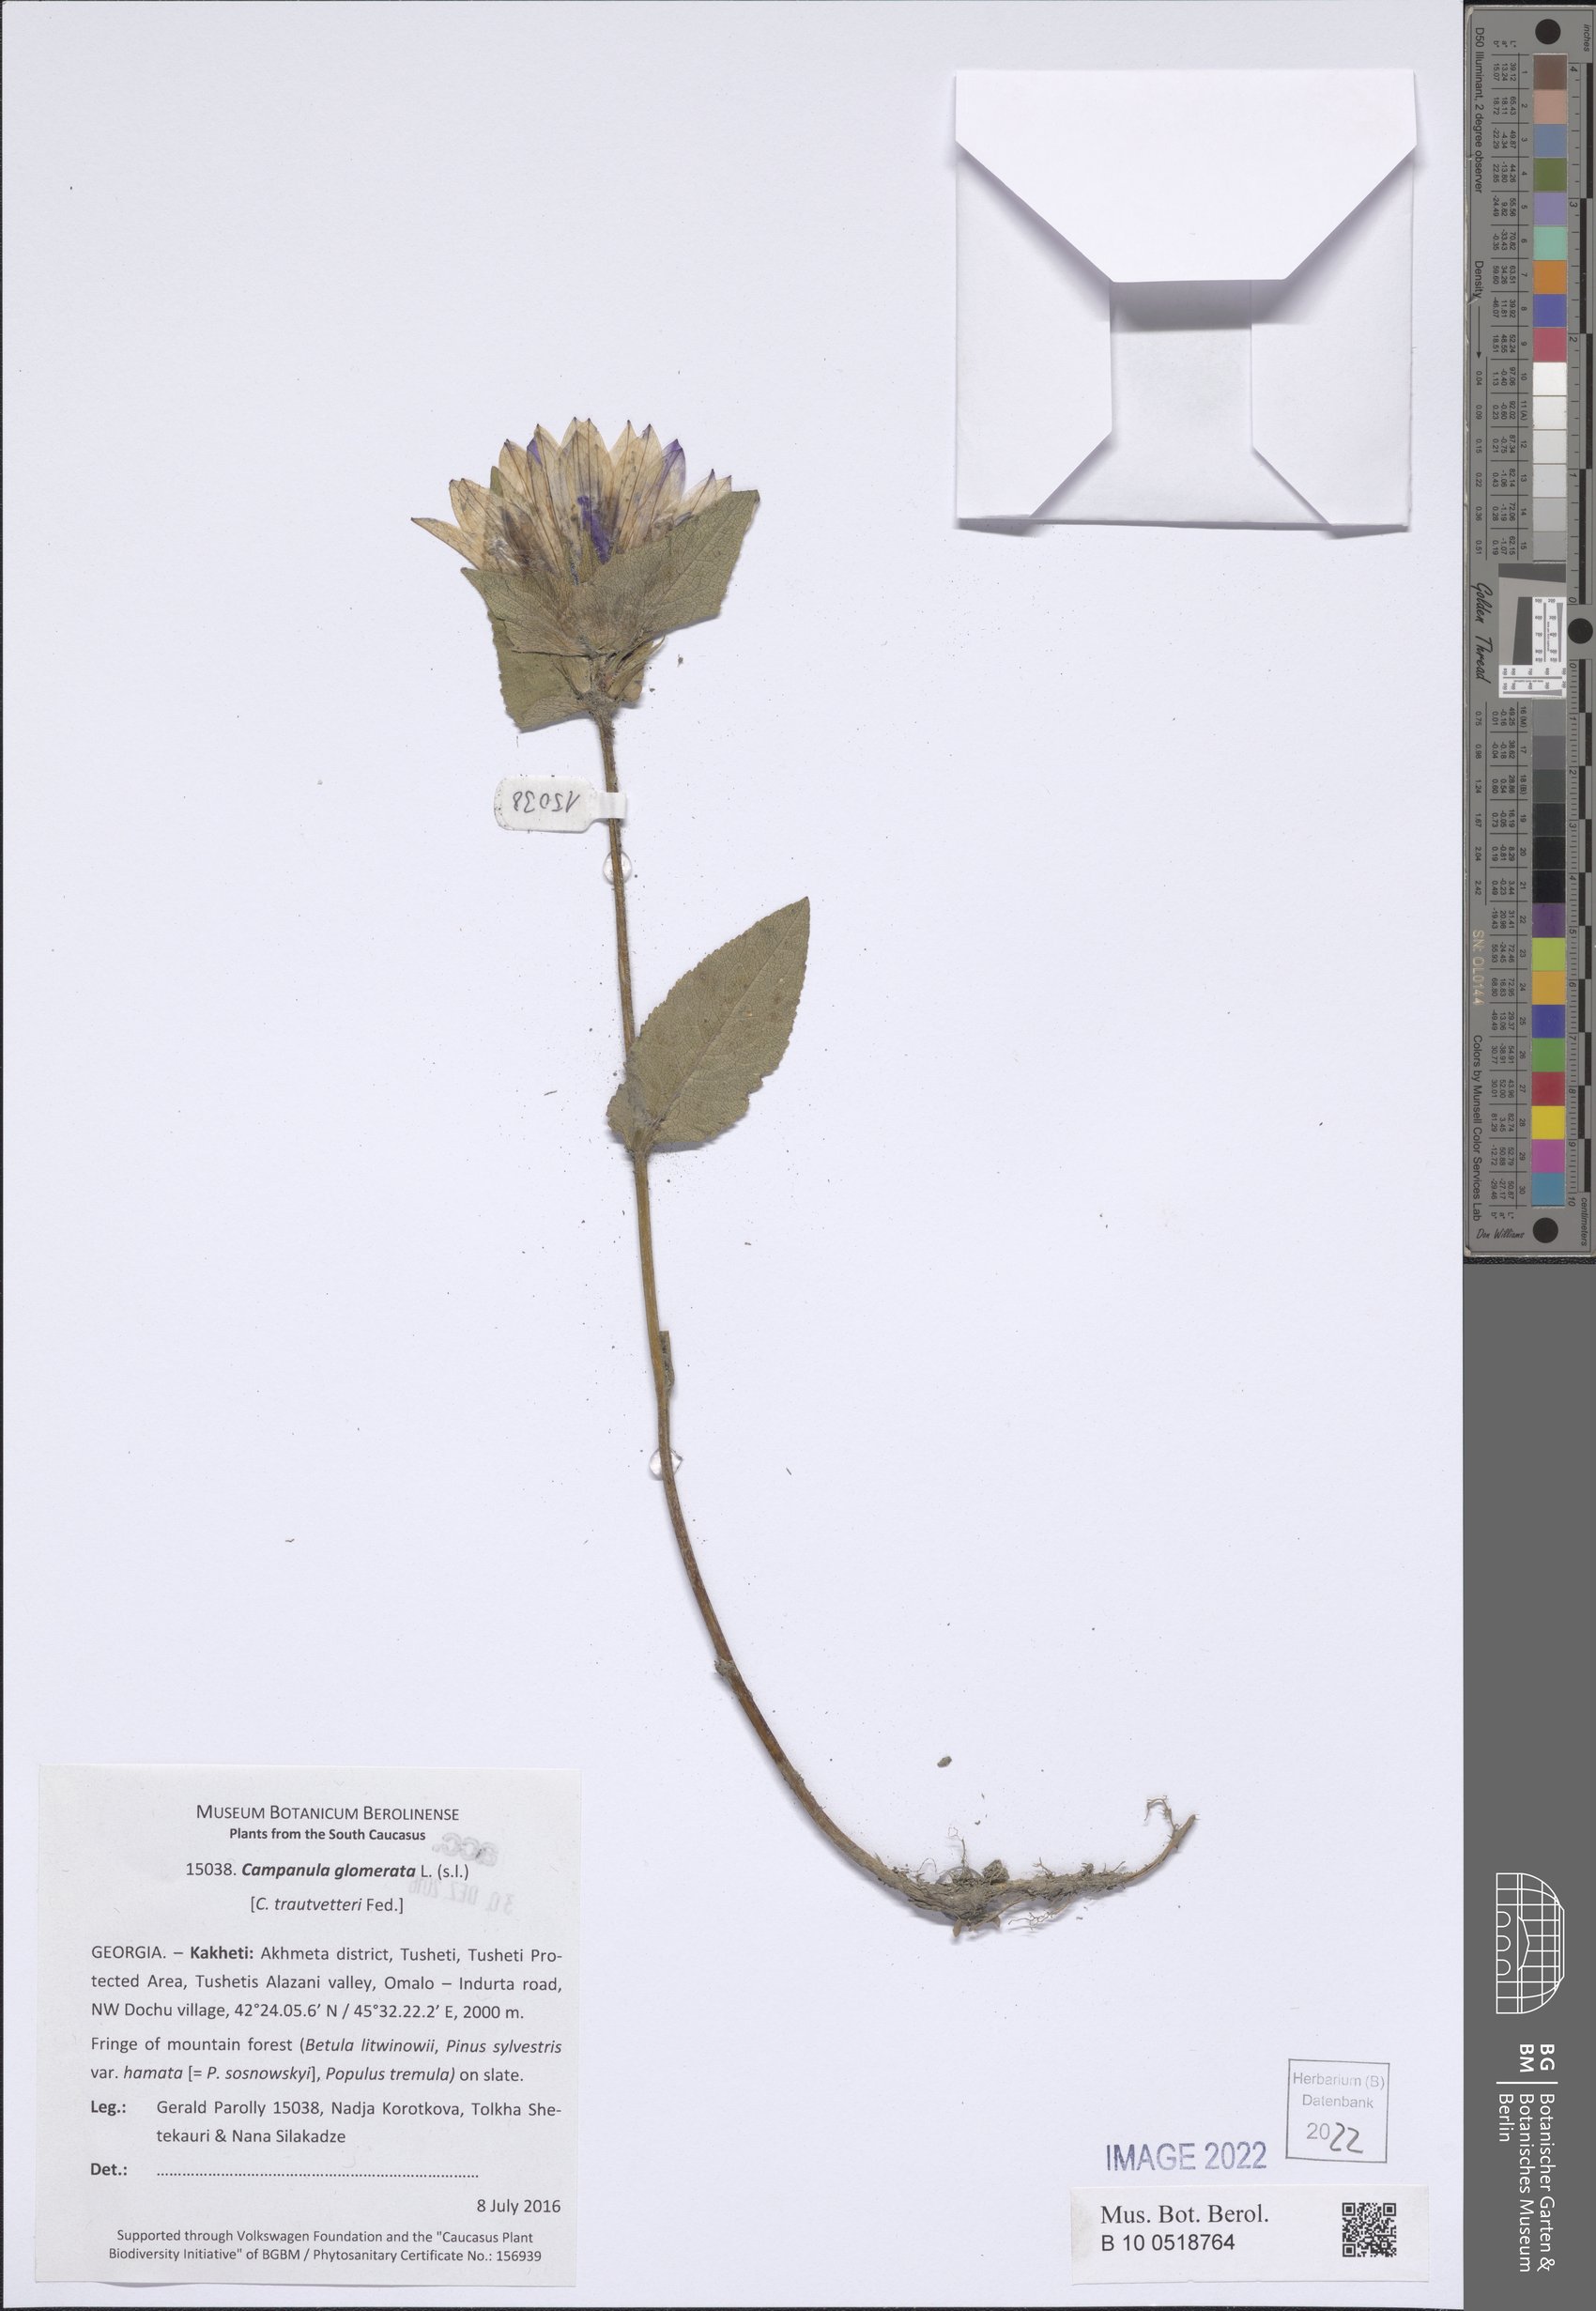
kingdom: Plantae
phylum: Tracheophyta
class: Magnoliopsida
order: Asterales
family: Campanulaceae
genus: Campanula
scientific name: Campanula glomerata
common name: Clustered bellflower
